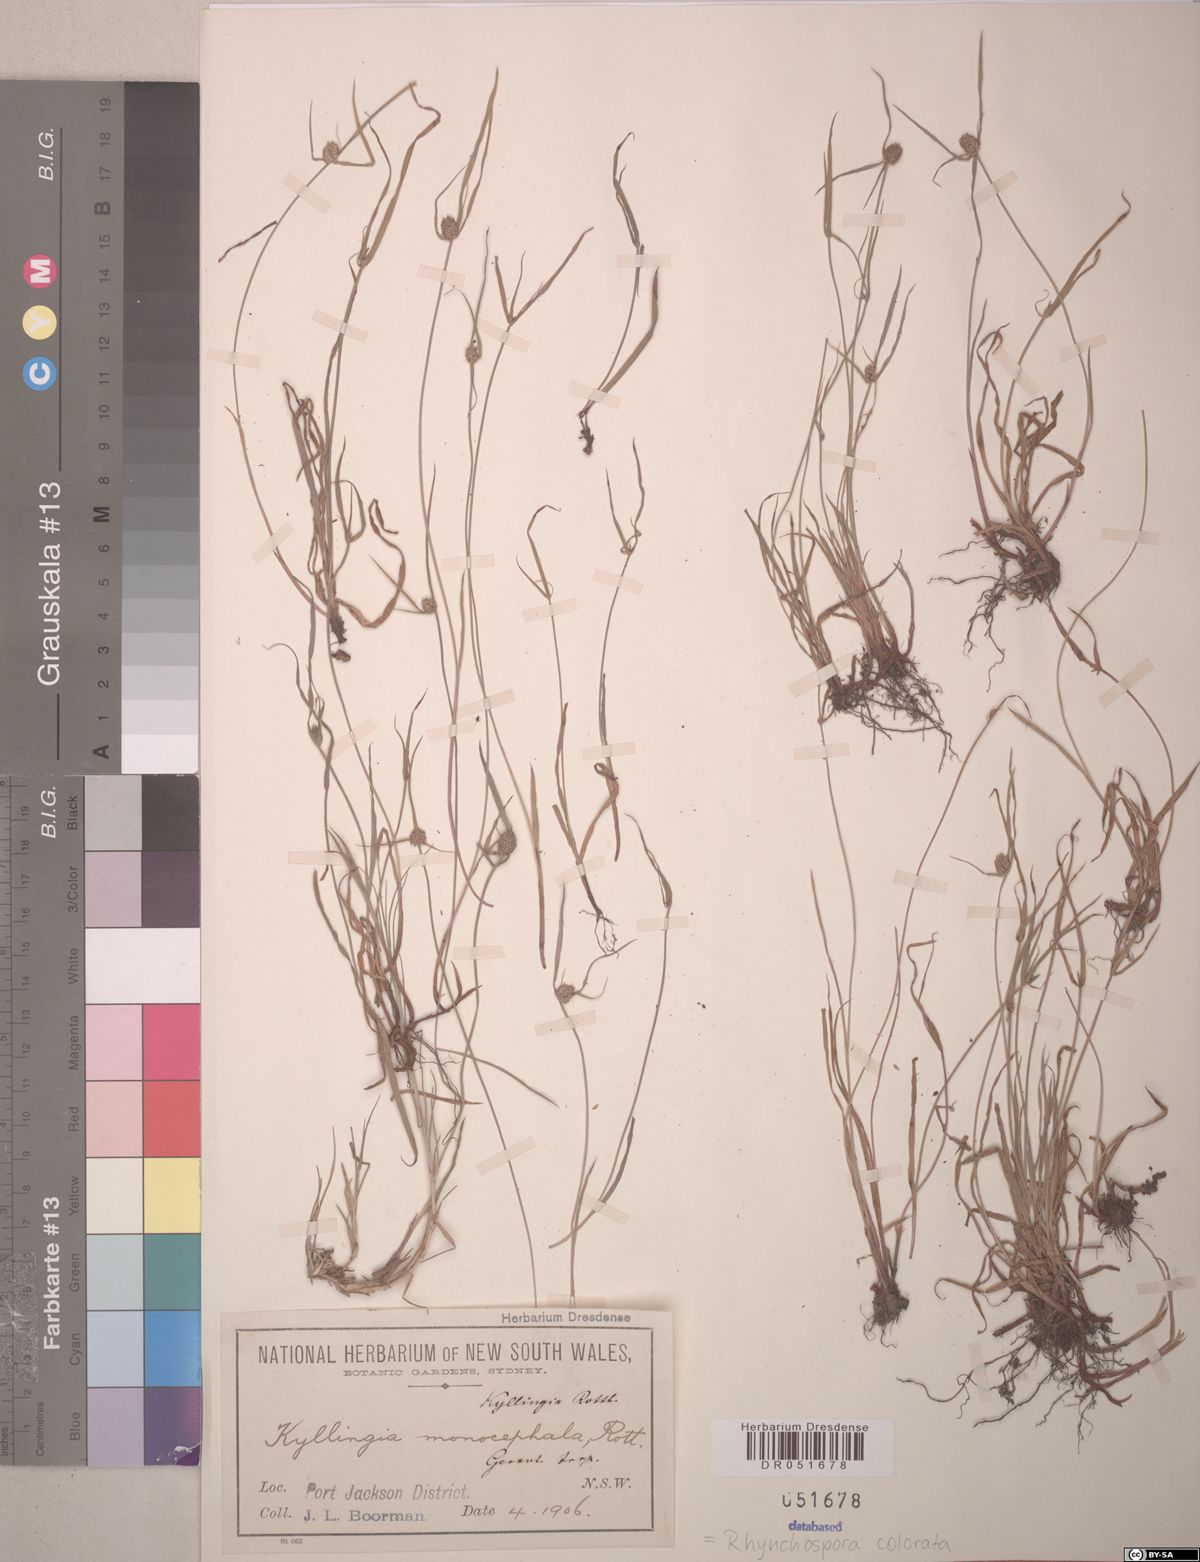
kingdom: Plantae
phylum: Tracheophyta
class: Liliopsida
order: Poales
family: Cyperaceae
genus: Rhynchospora
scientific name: Rhynchospora colorata
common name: Star sedge
